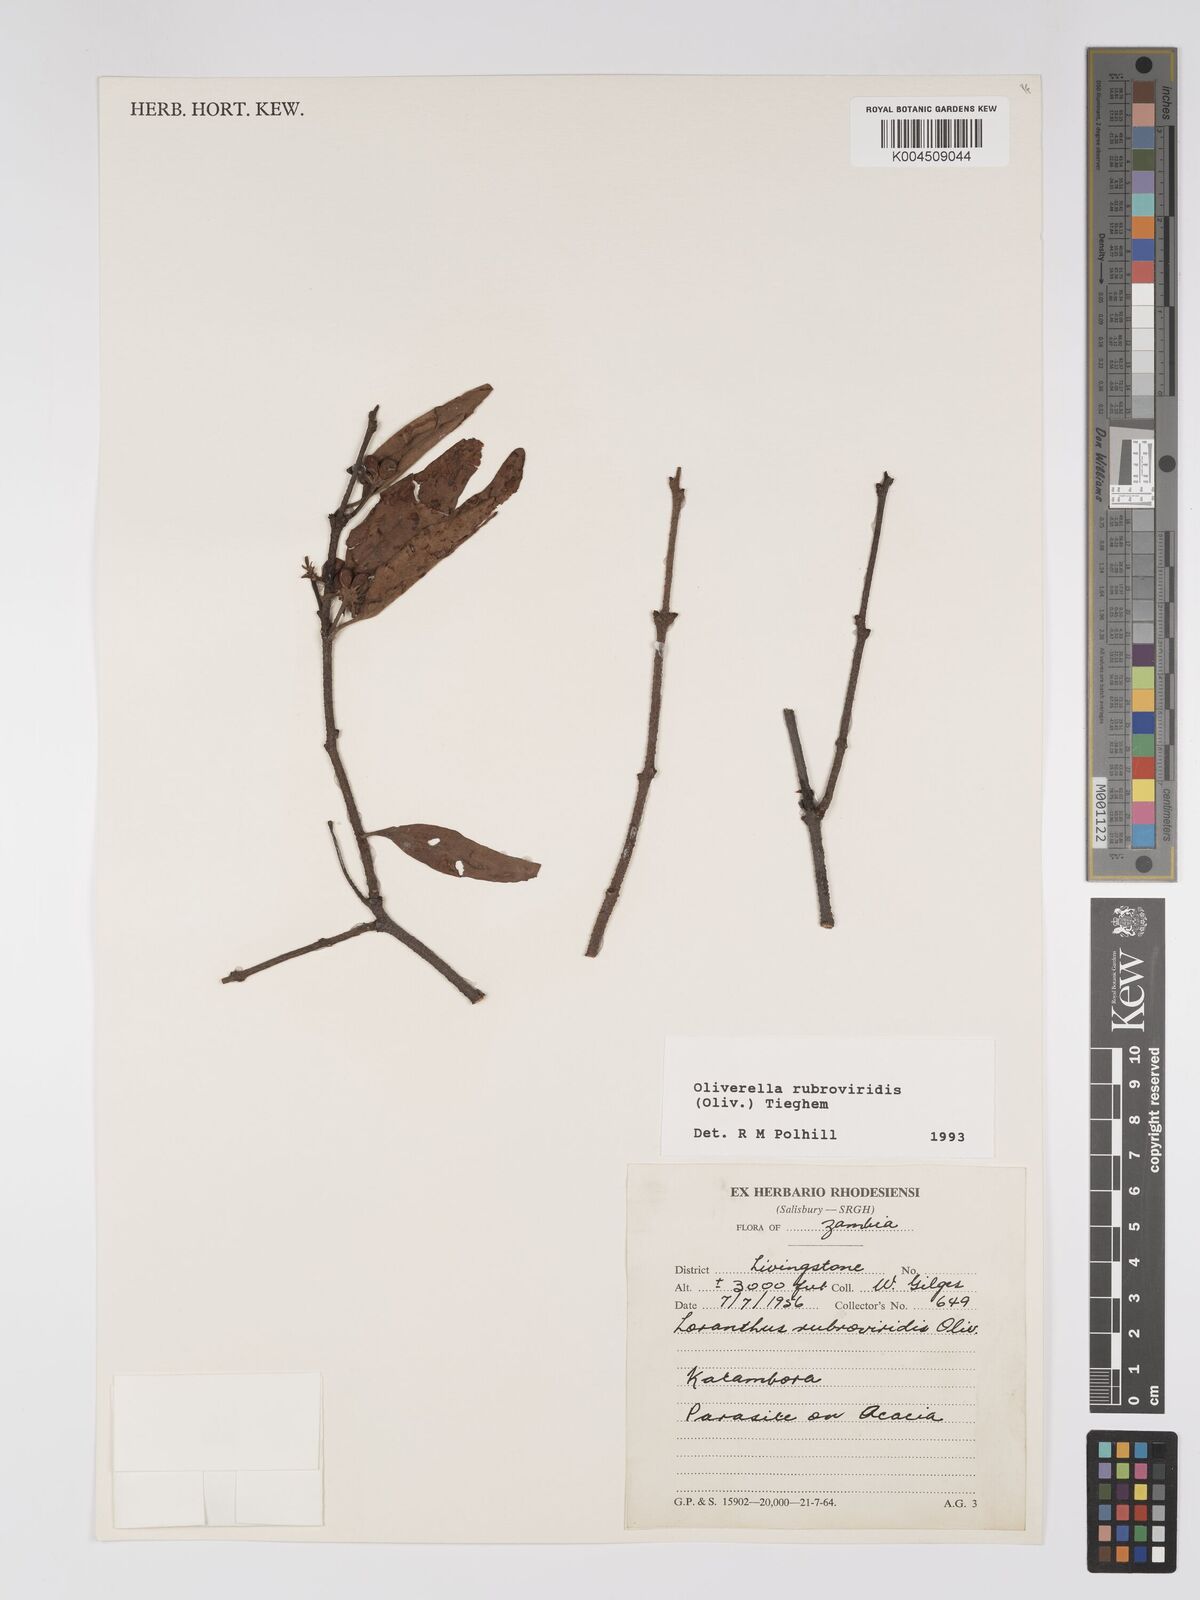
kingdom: Plantae
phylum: Tracheophyta
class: Magnoliopsida
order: Santalales
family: Loranthaceae
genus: Oliverella
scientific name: Oliverella rubroviridis
